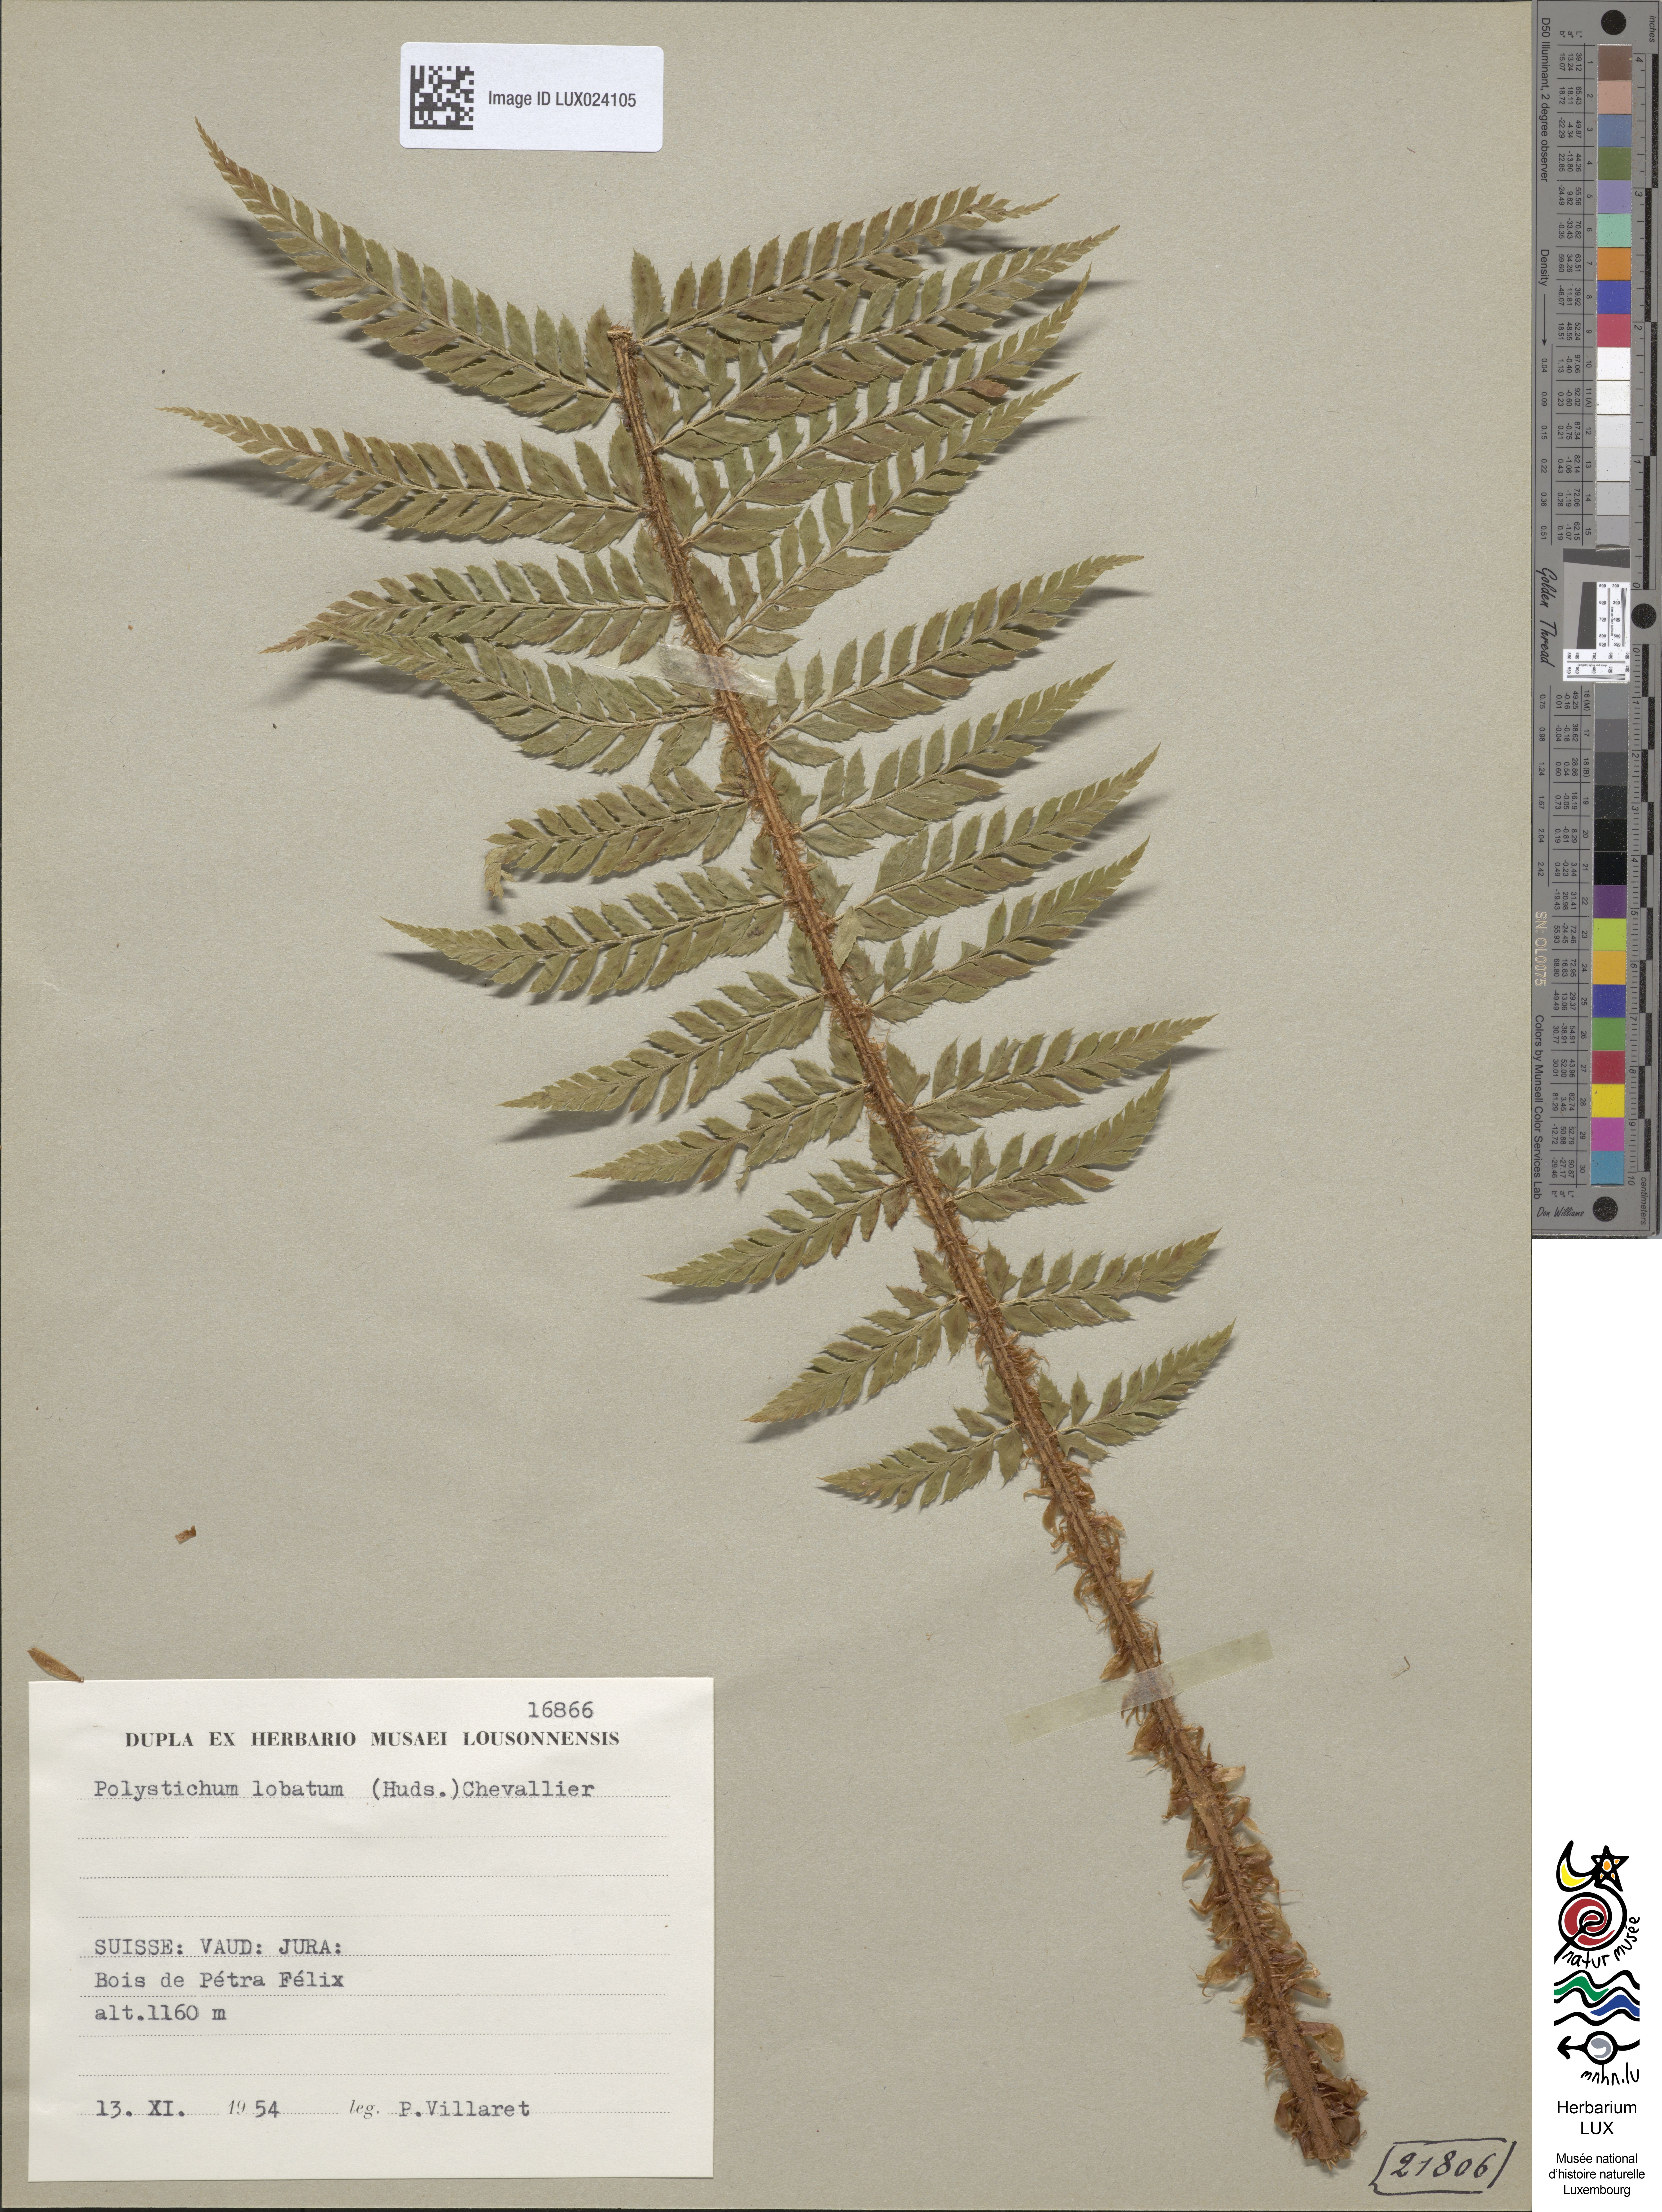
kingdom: Plantae
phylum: Tracheophyta
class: Polypodiopsida
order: Polypodiales
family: Dryopteridaceae
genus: Polystichum
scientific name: Polystichum aculeatum
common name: Hard shield-fern
